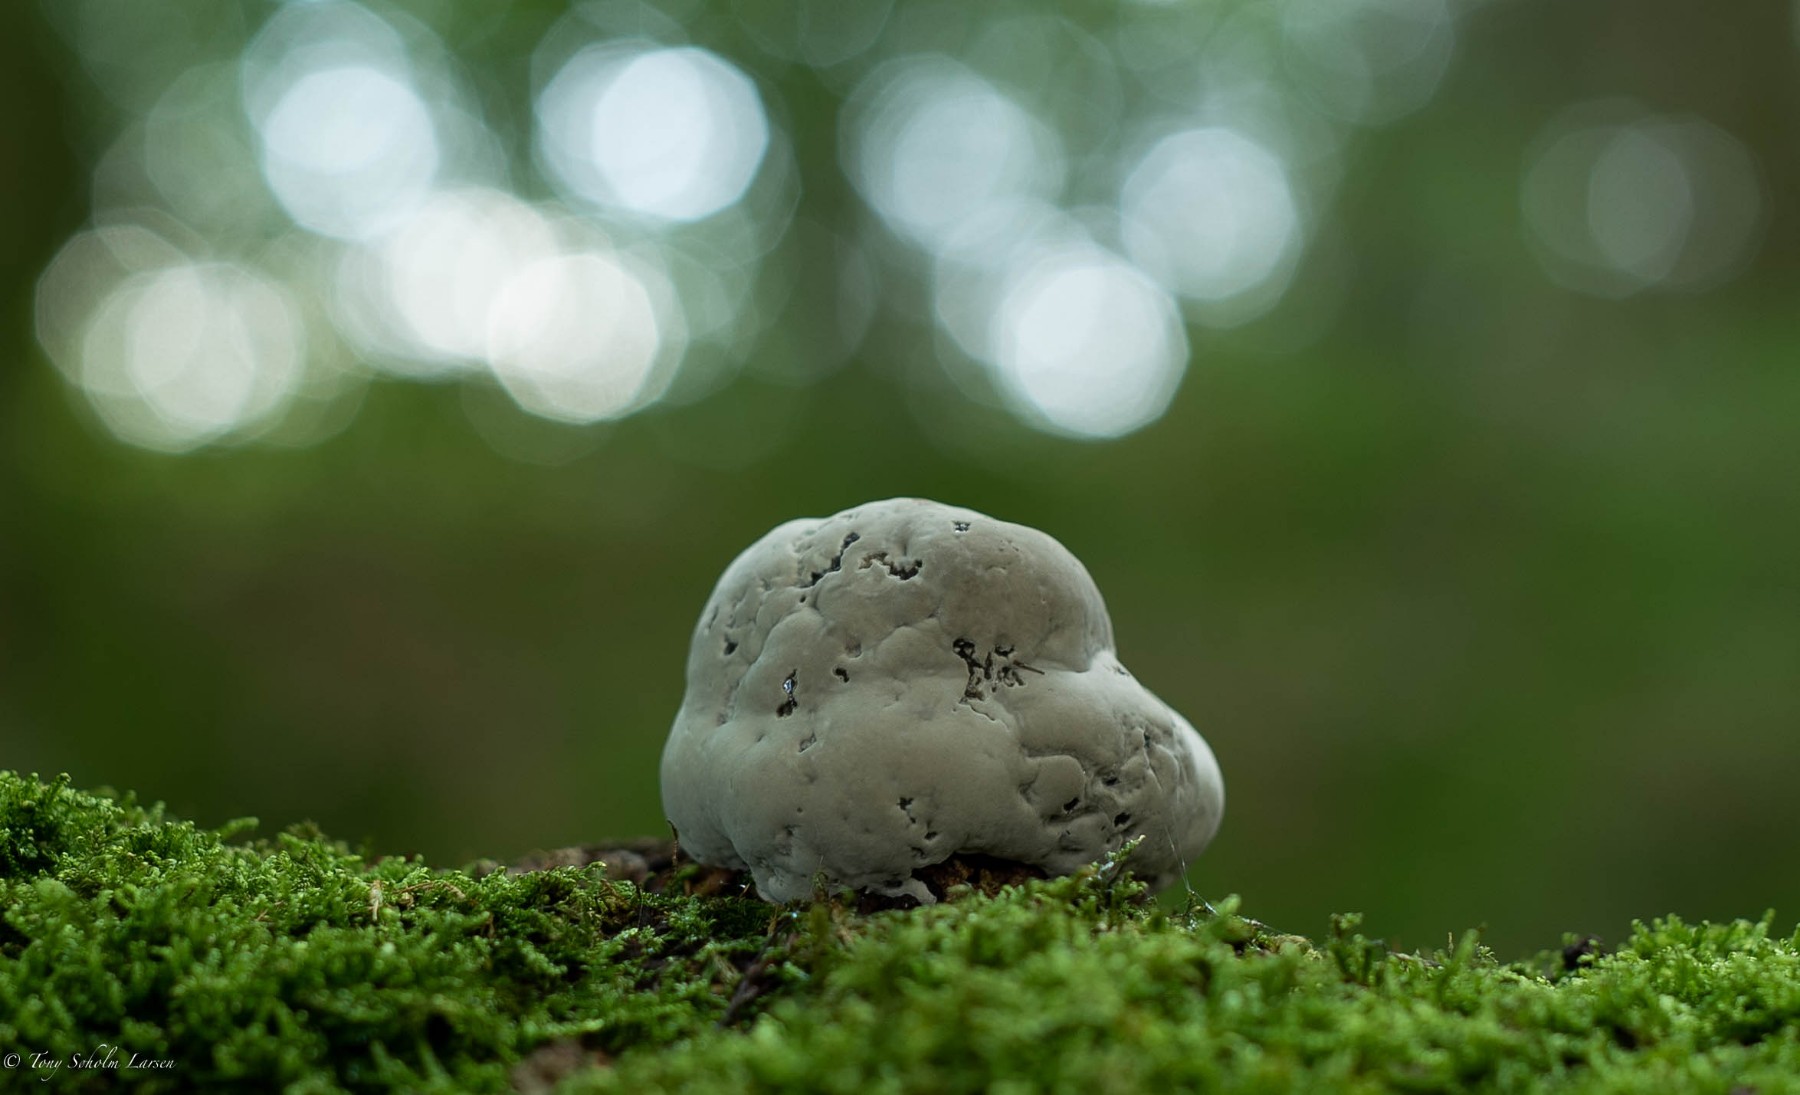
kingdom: Fungi
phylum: Basidiomycota
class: Agaricomycetes
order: Polyporales
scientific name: Polyporales
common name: poresvampordenen
